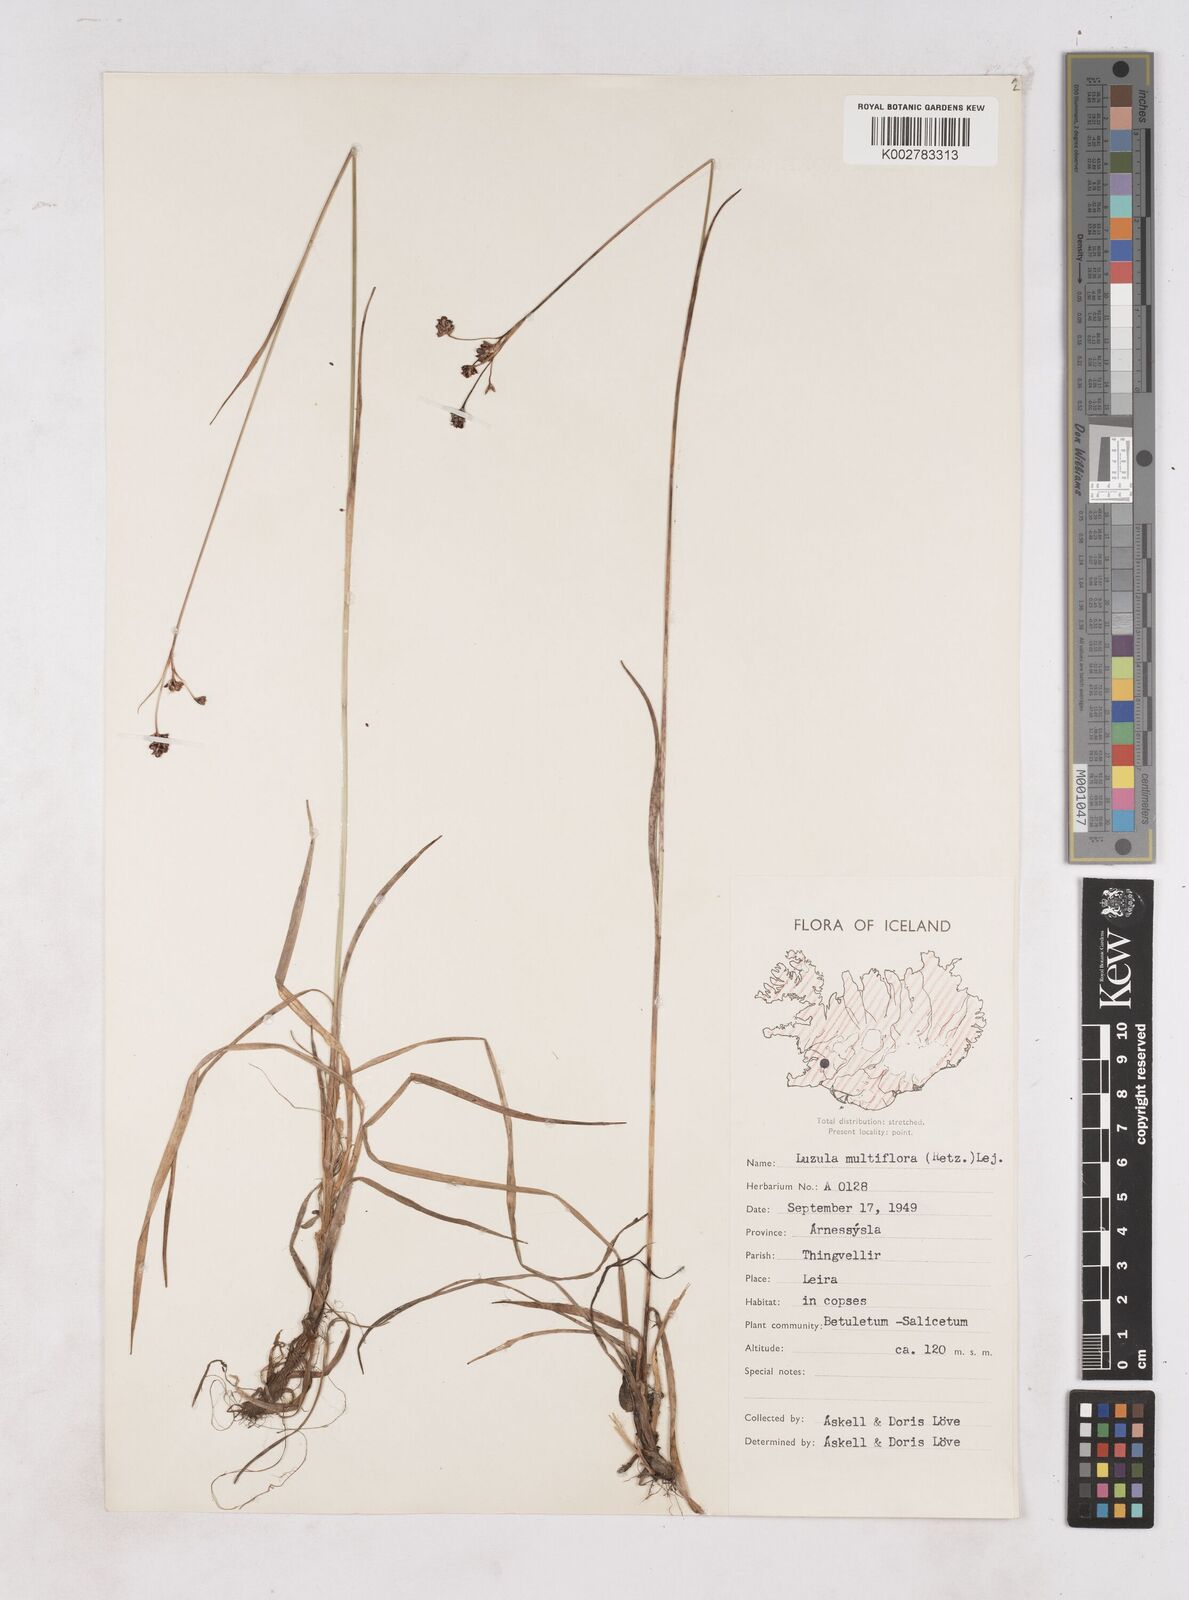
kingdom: Plantae
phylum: Tracheophyta
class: Liliopsida
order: Poales
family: Juncaceae
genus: Luzula
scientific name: Luzula multiflora
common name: Heath wood-rush
